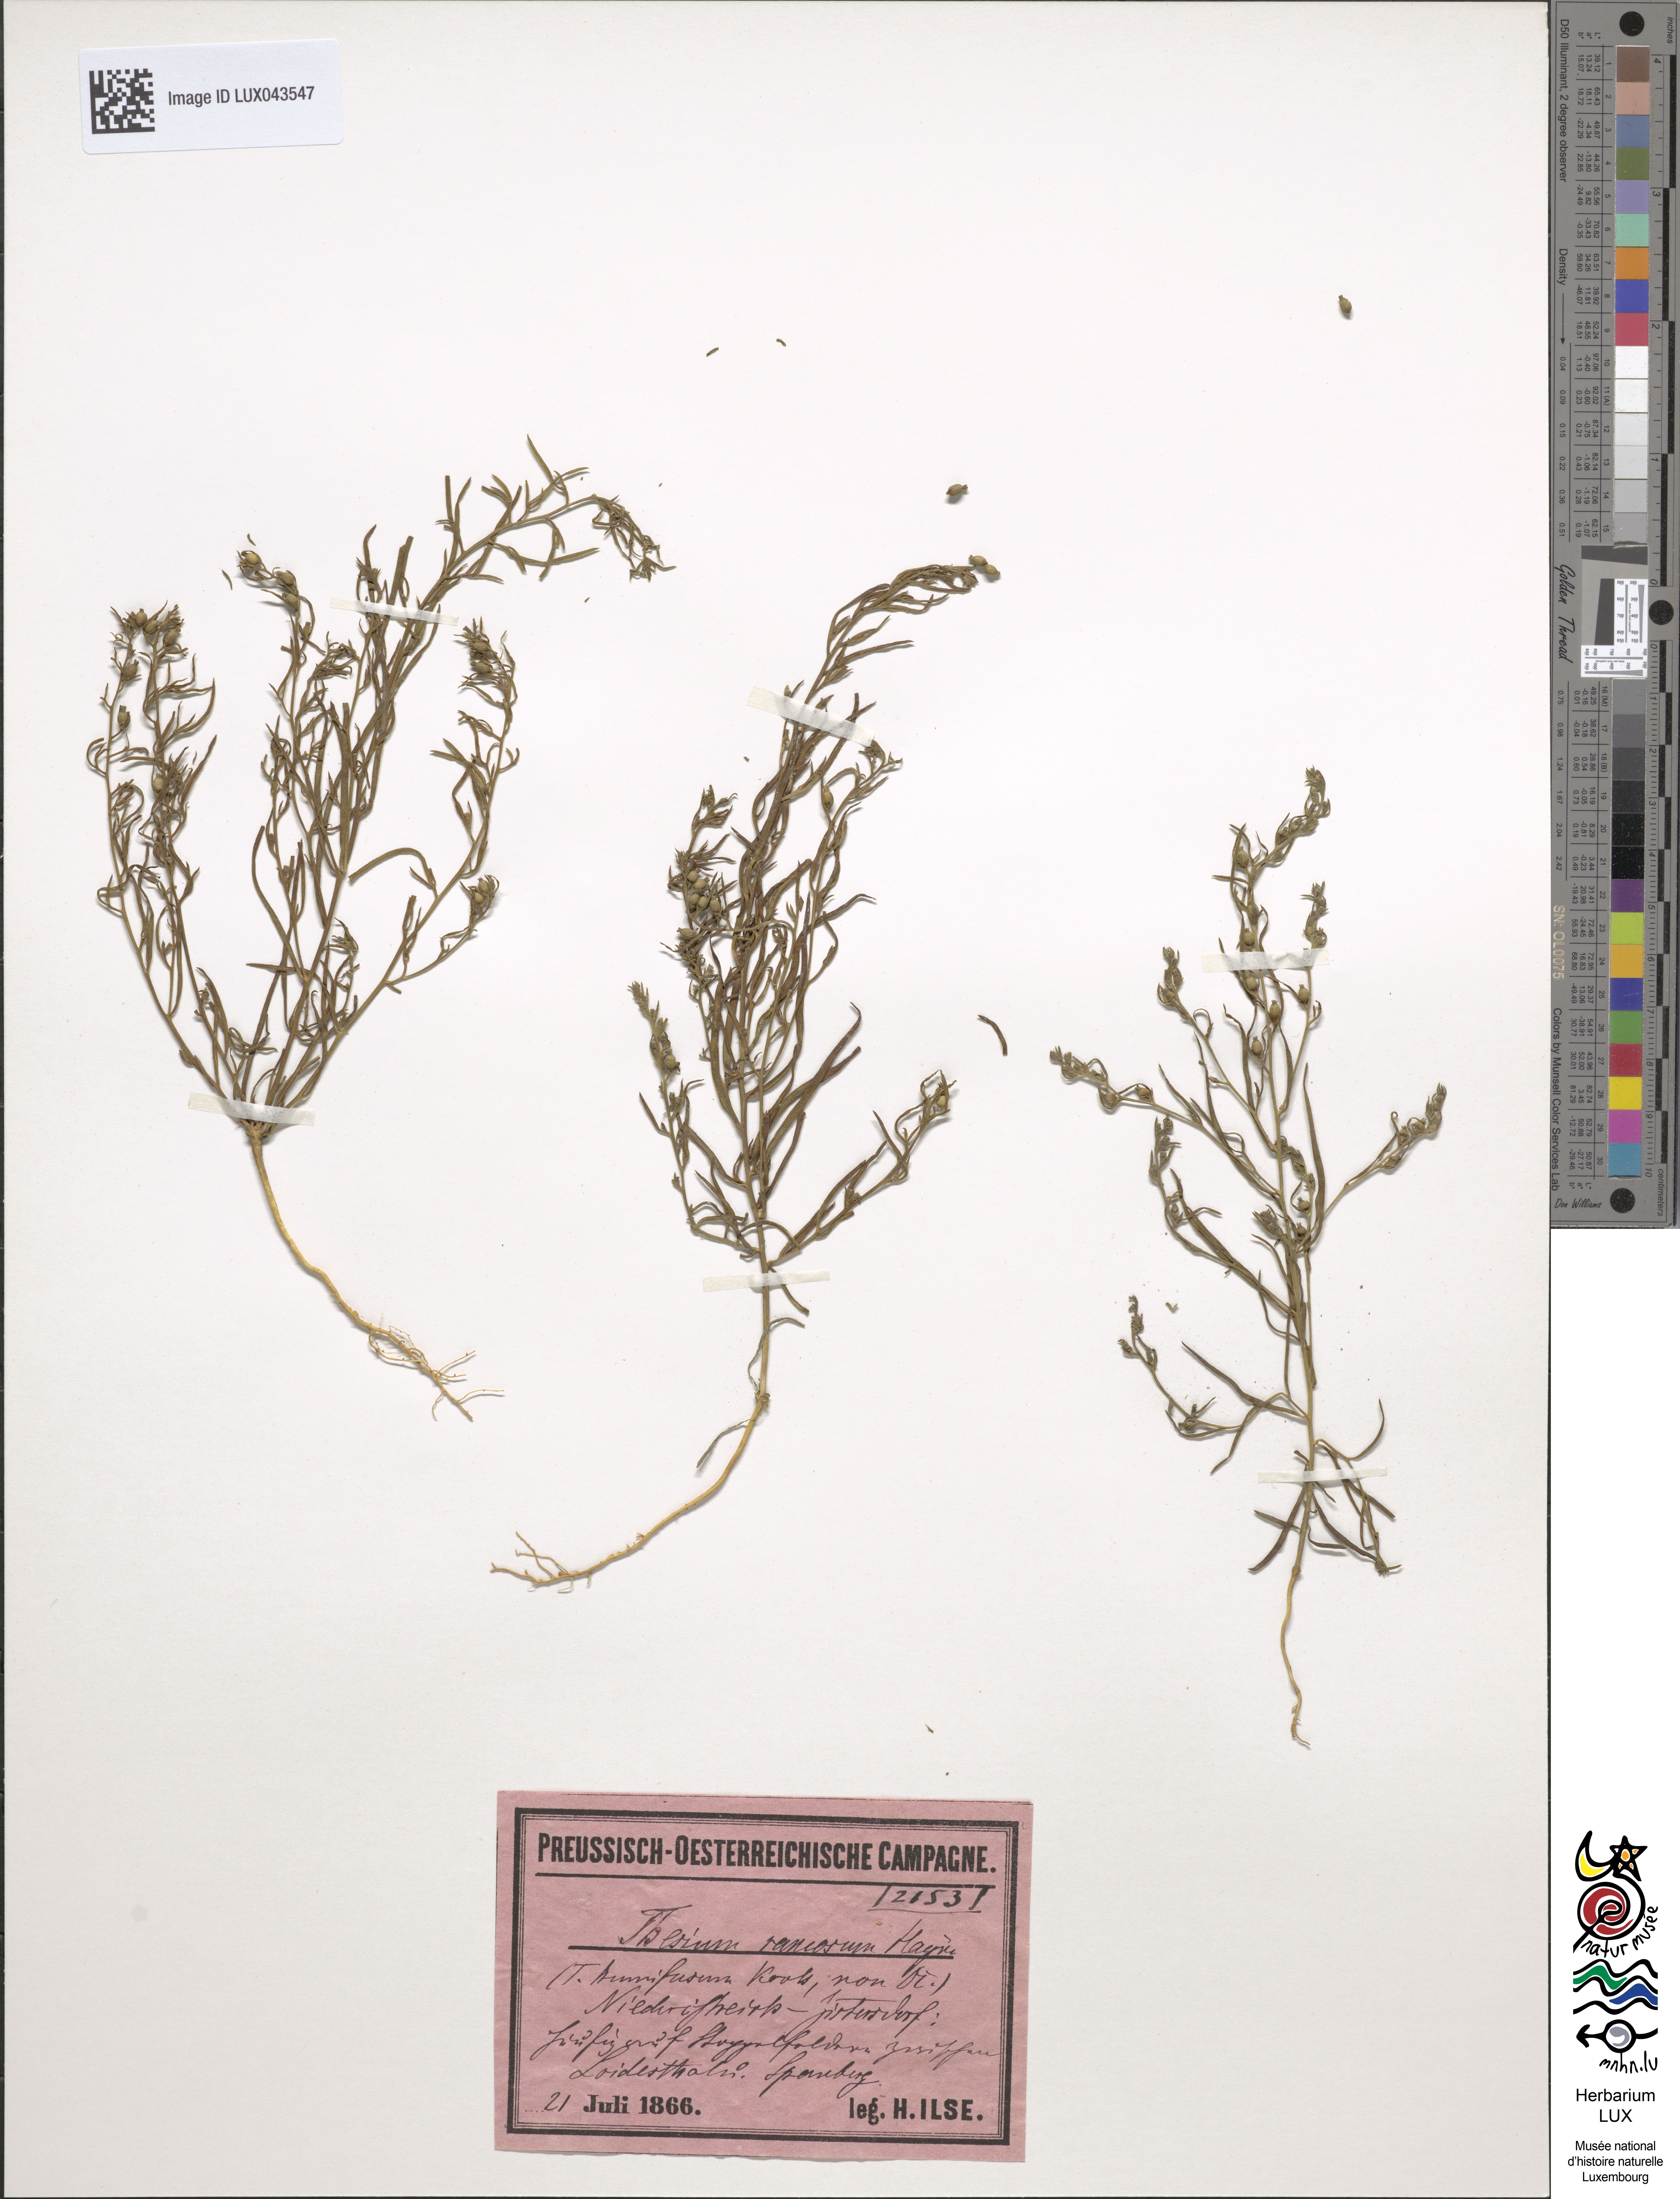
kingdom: Plantae
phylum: Tracheophyta
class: Magnoliopsida
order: Santalales
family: Thesiaceae
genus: Thesium
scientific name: Thesium
